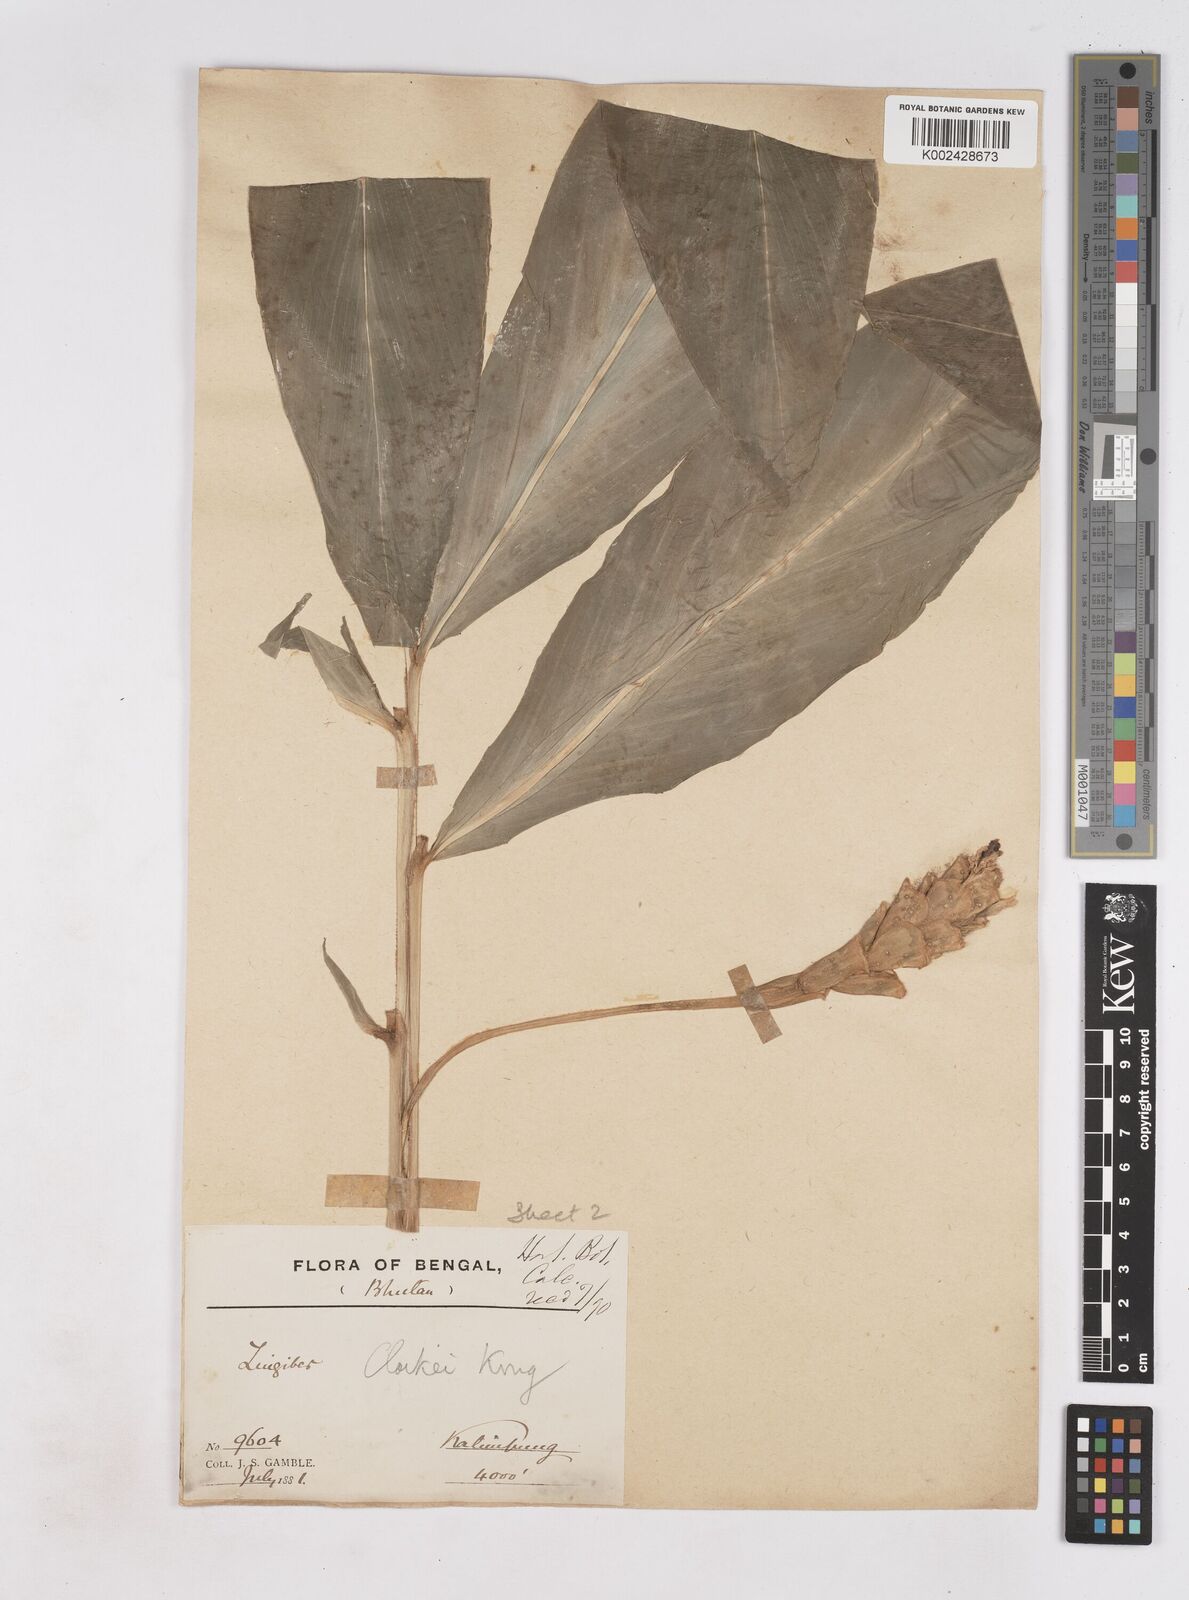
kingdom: Plantae
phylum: Tracheophyta
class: Liliopsida
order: Zingiberales
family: Zingiberaceae
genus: Zingiber
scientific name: Zingiber clarkei
